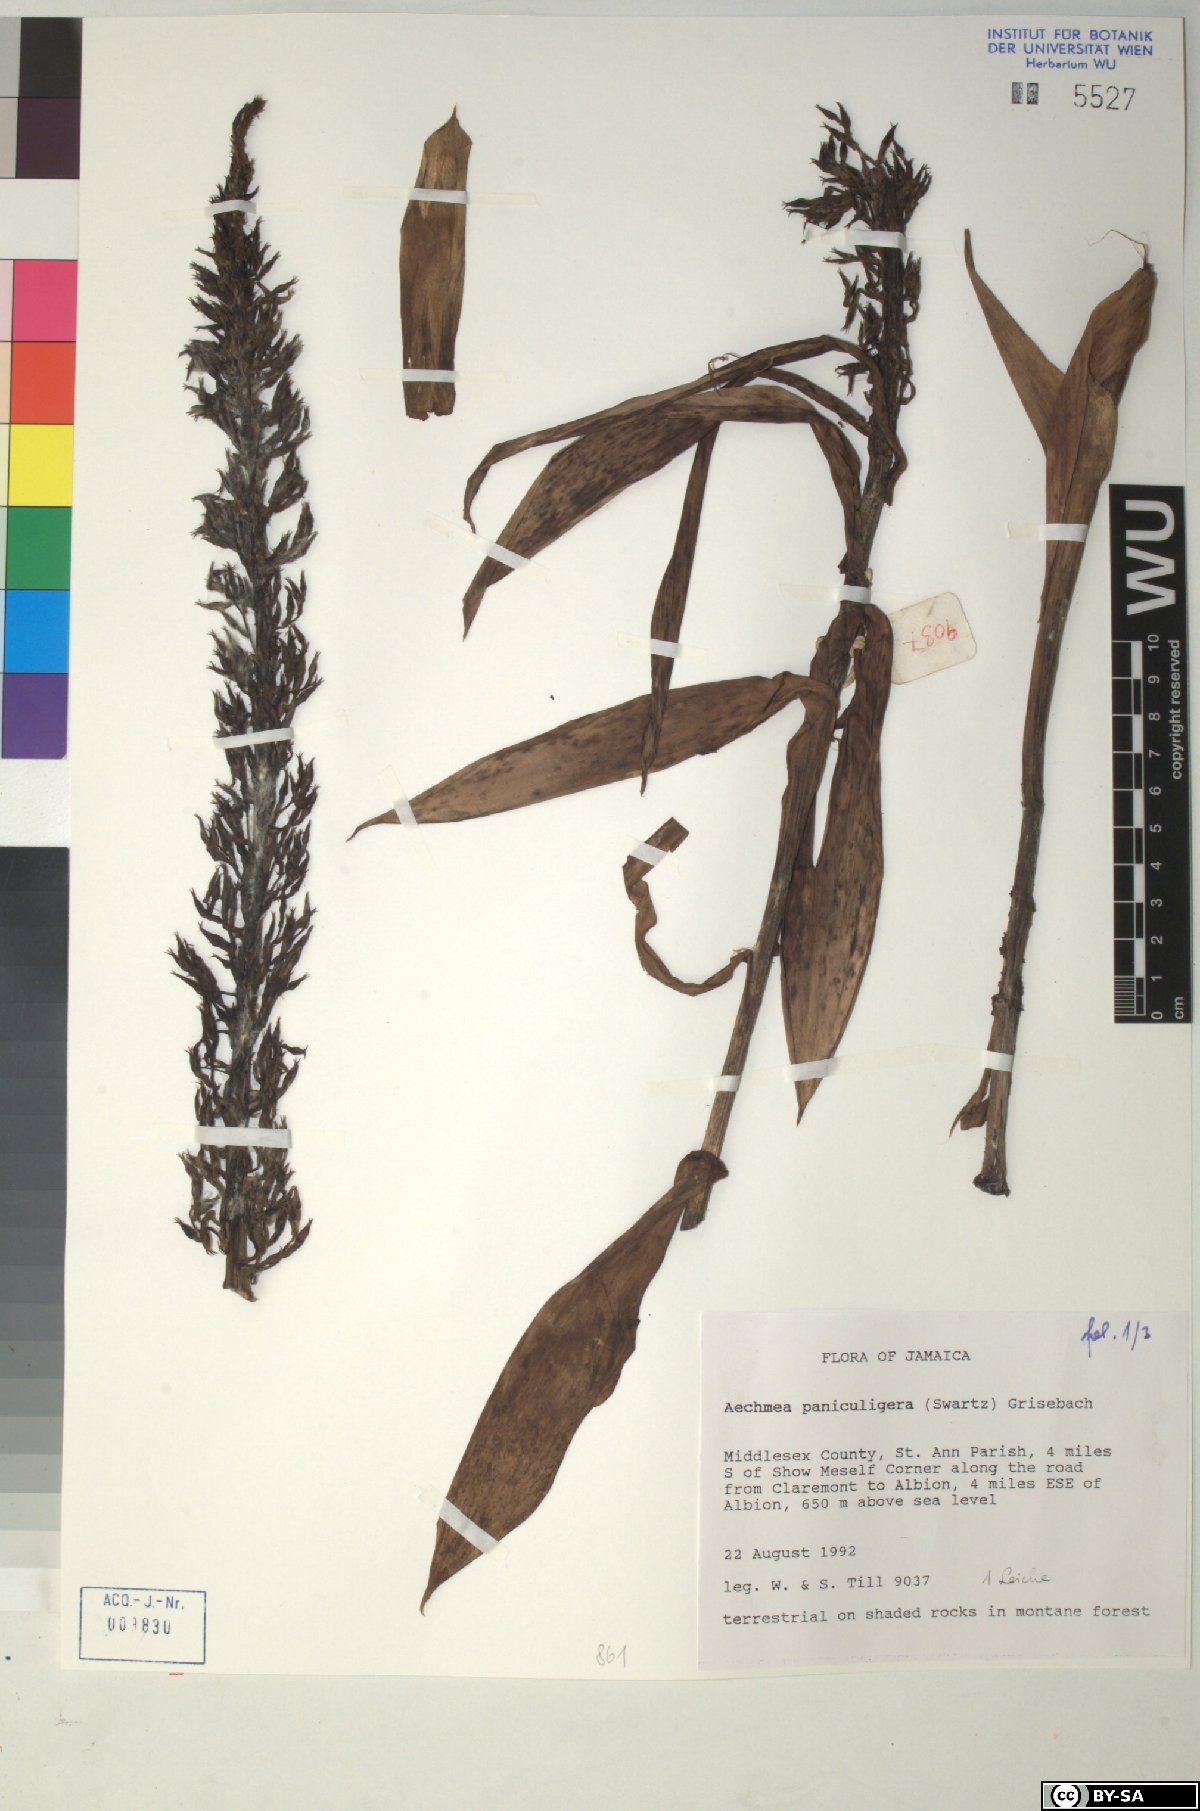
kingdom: Plantae
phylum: Tracheophyta
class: Liliopsida
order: Poales
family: Bromeliaceae
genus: Aechmea
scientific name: Aechmea paniculigera
